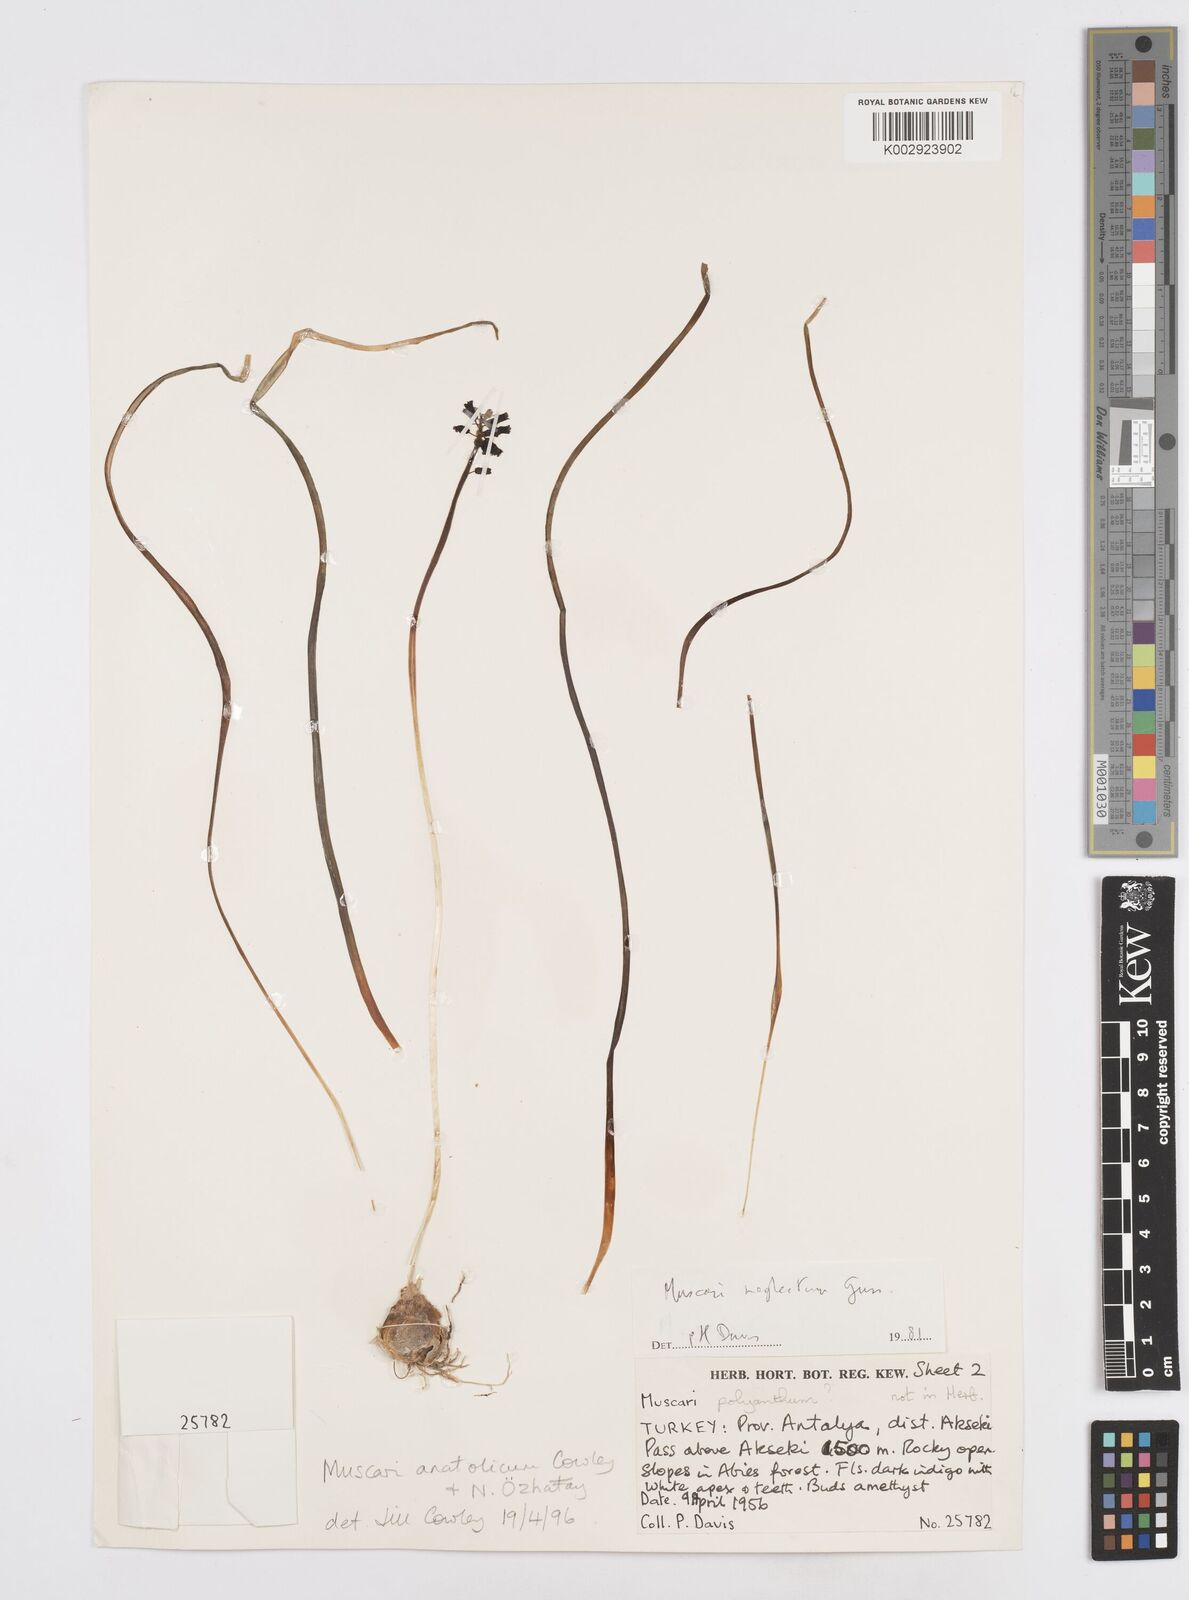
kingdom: Plantae
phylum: Tracheophyta
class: Liliopsida
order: Asparagales
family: Asparagaceae
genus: Muscari
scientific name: Muscari anatolicum
